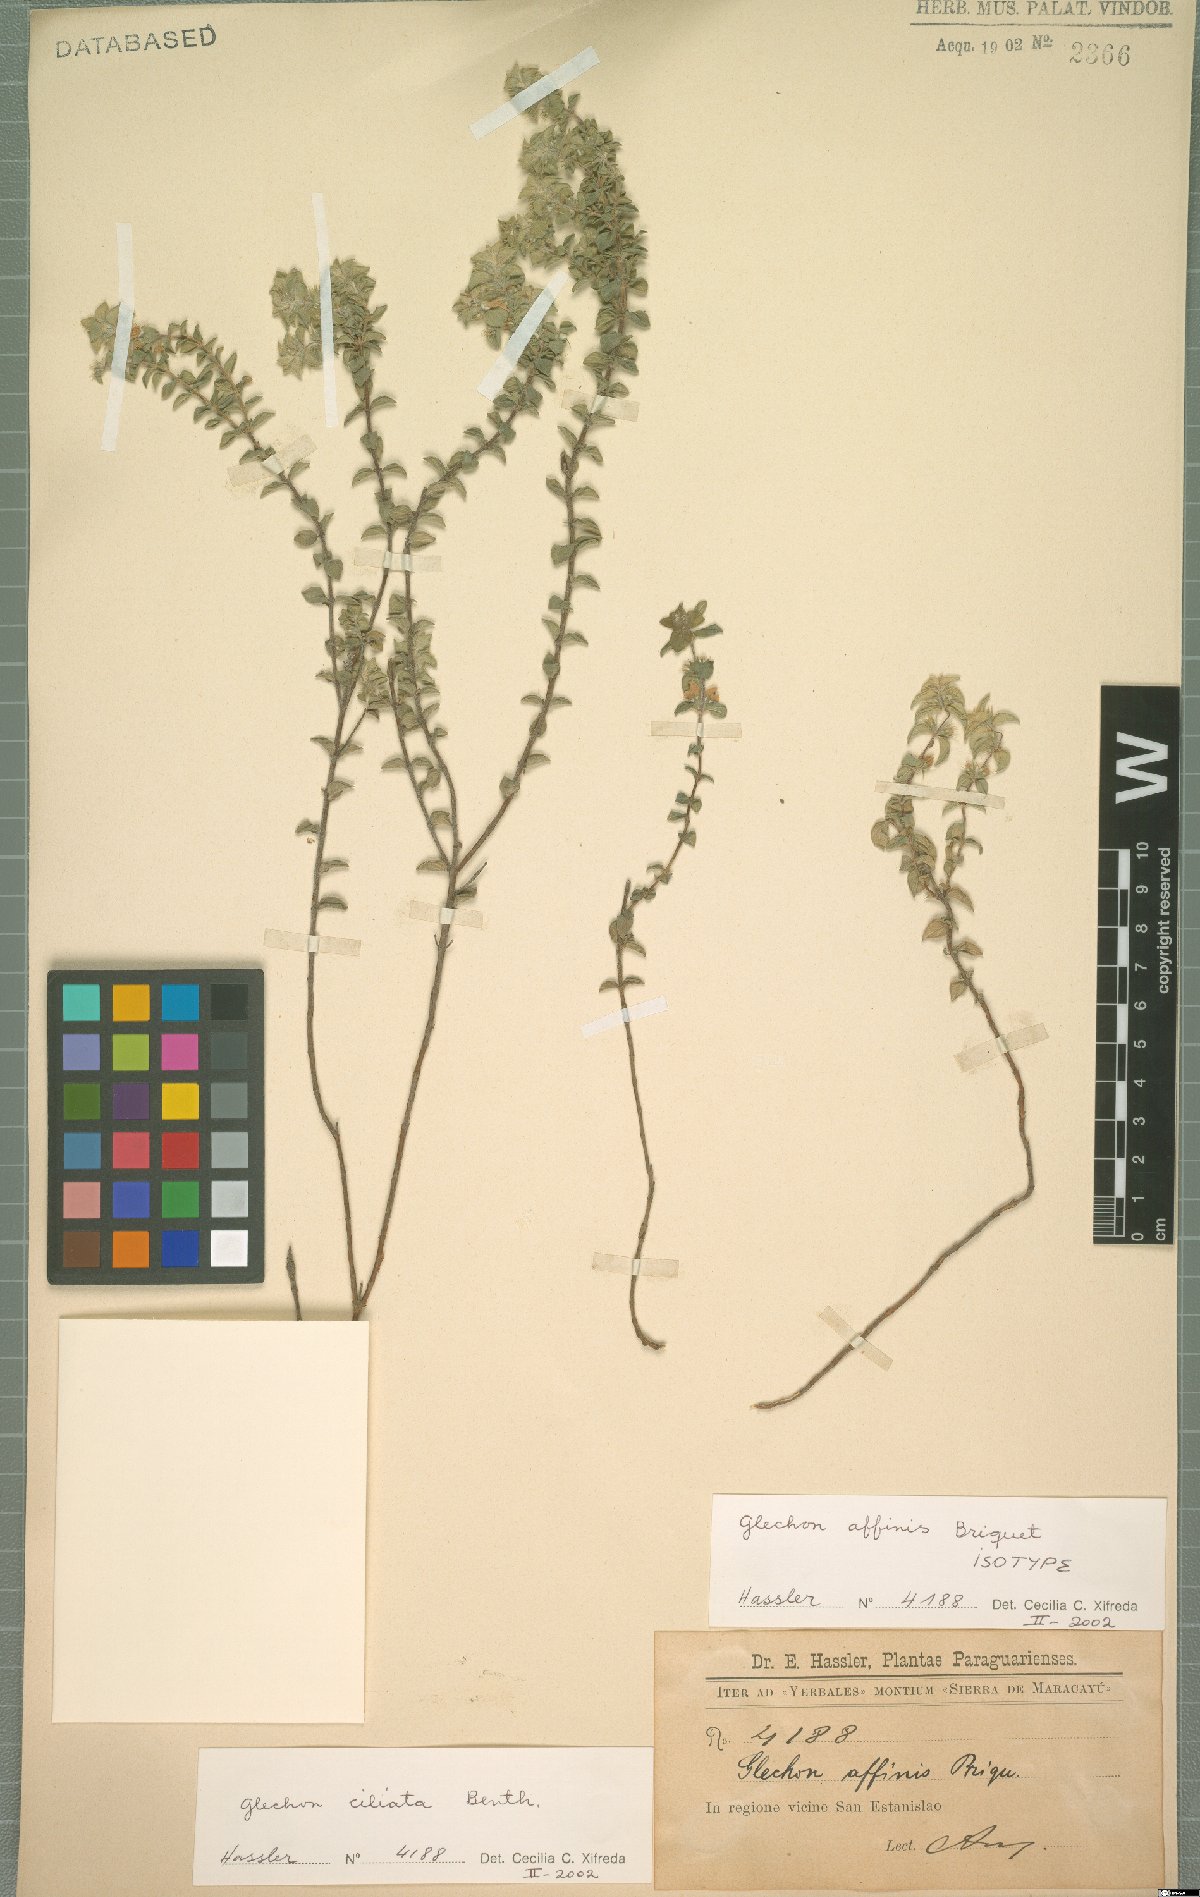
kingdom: Plantae
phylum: Tracheophyta
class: Magnoliopsida
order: Lamiales
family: Lamiaceae
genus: Glechon
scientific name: Glechon ciliata
